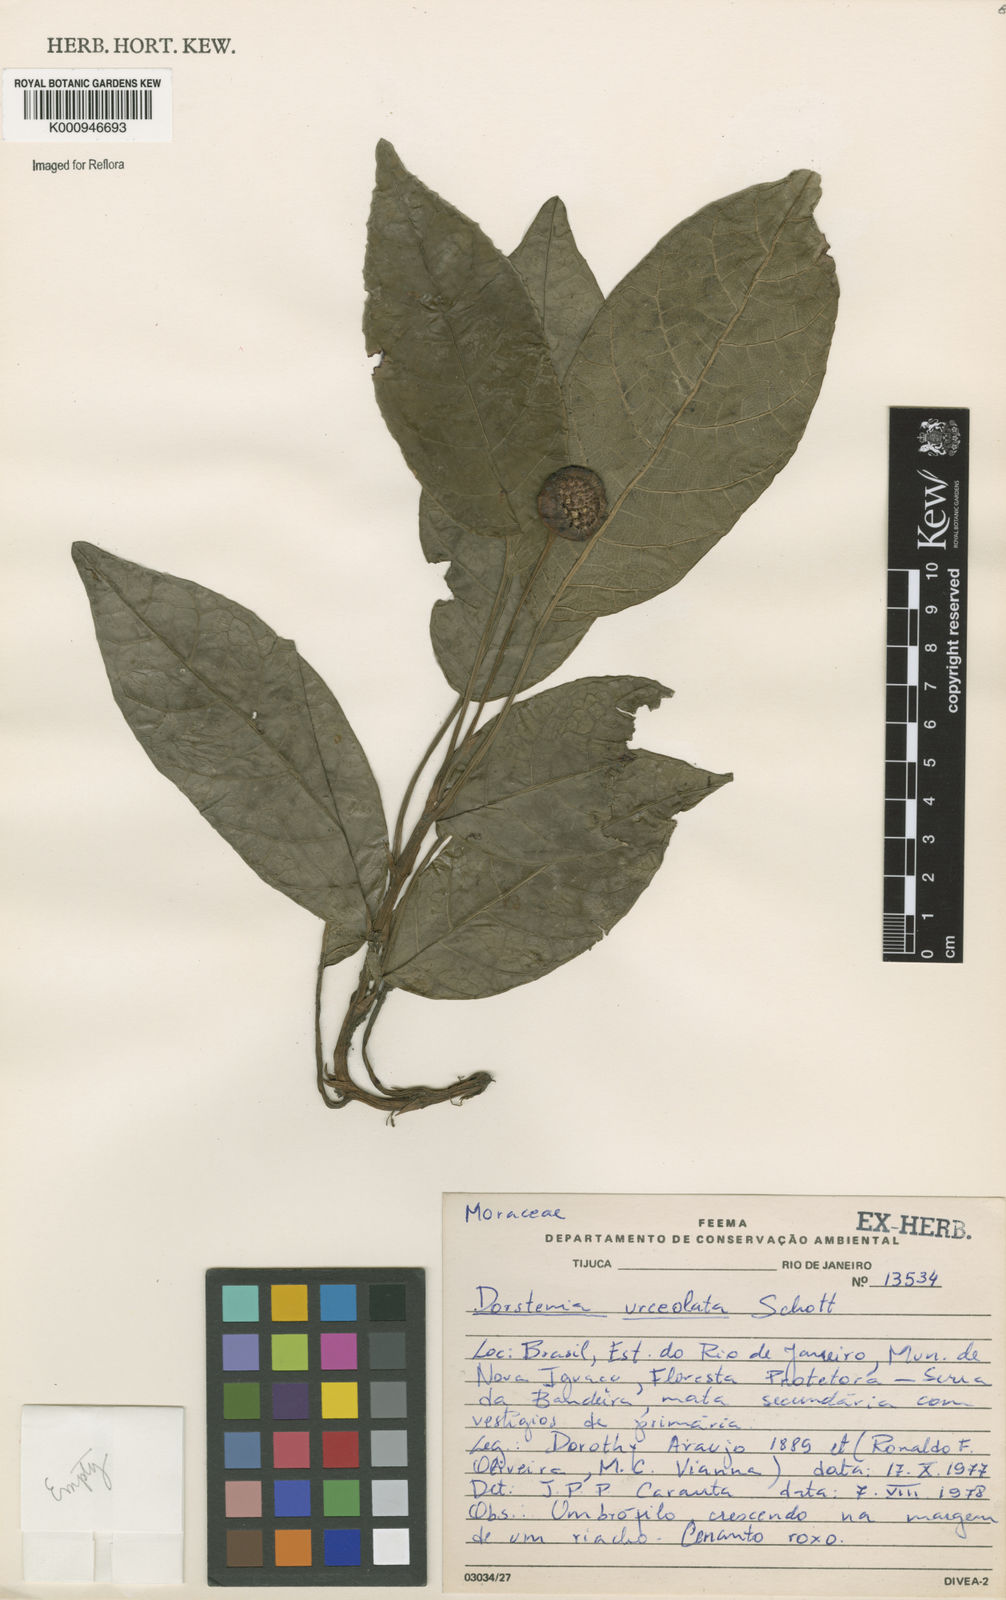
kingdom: Plantae
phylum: Tracheophyta
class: Magnoliopsida
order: Rosales
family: Moraceae
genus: Dorstenia
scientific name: Dorstenia urceolata
